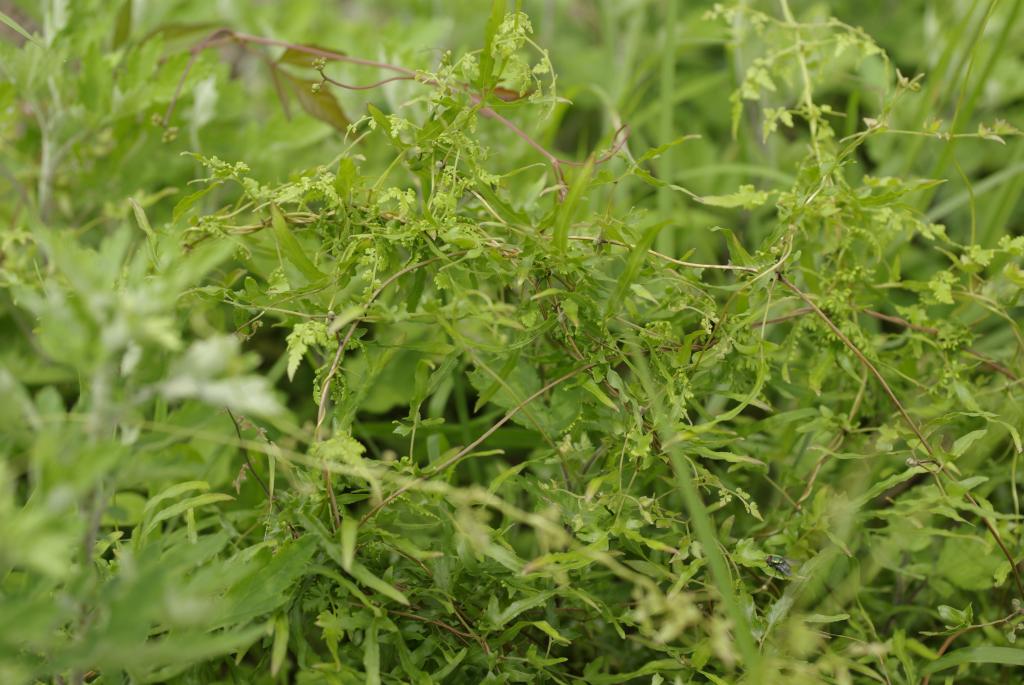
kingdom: Plantae
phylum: Tracheophyta
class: Polypodiopsida
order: Schizaeales
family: Lygodiaceae
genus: Lygodium
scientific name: Lygodium japonicum
